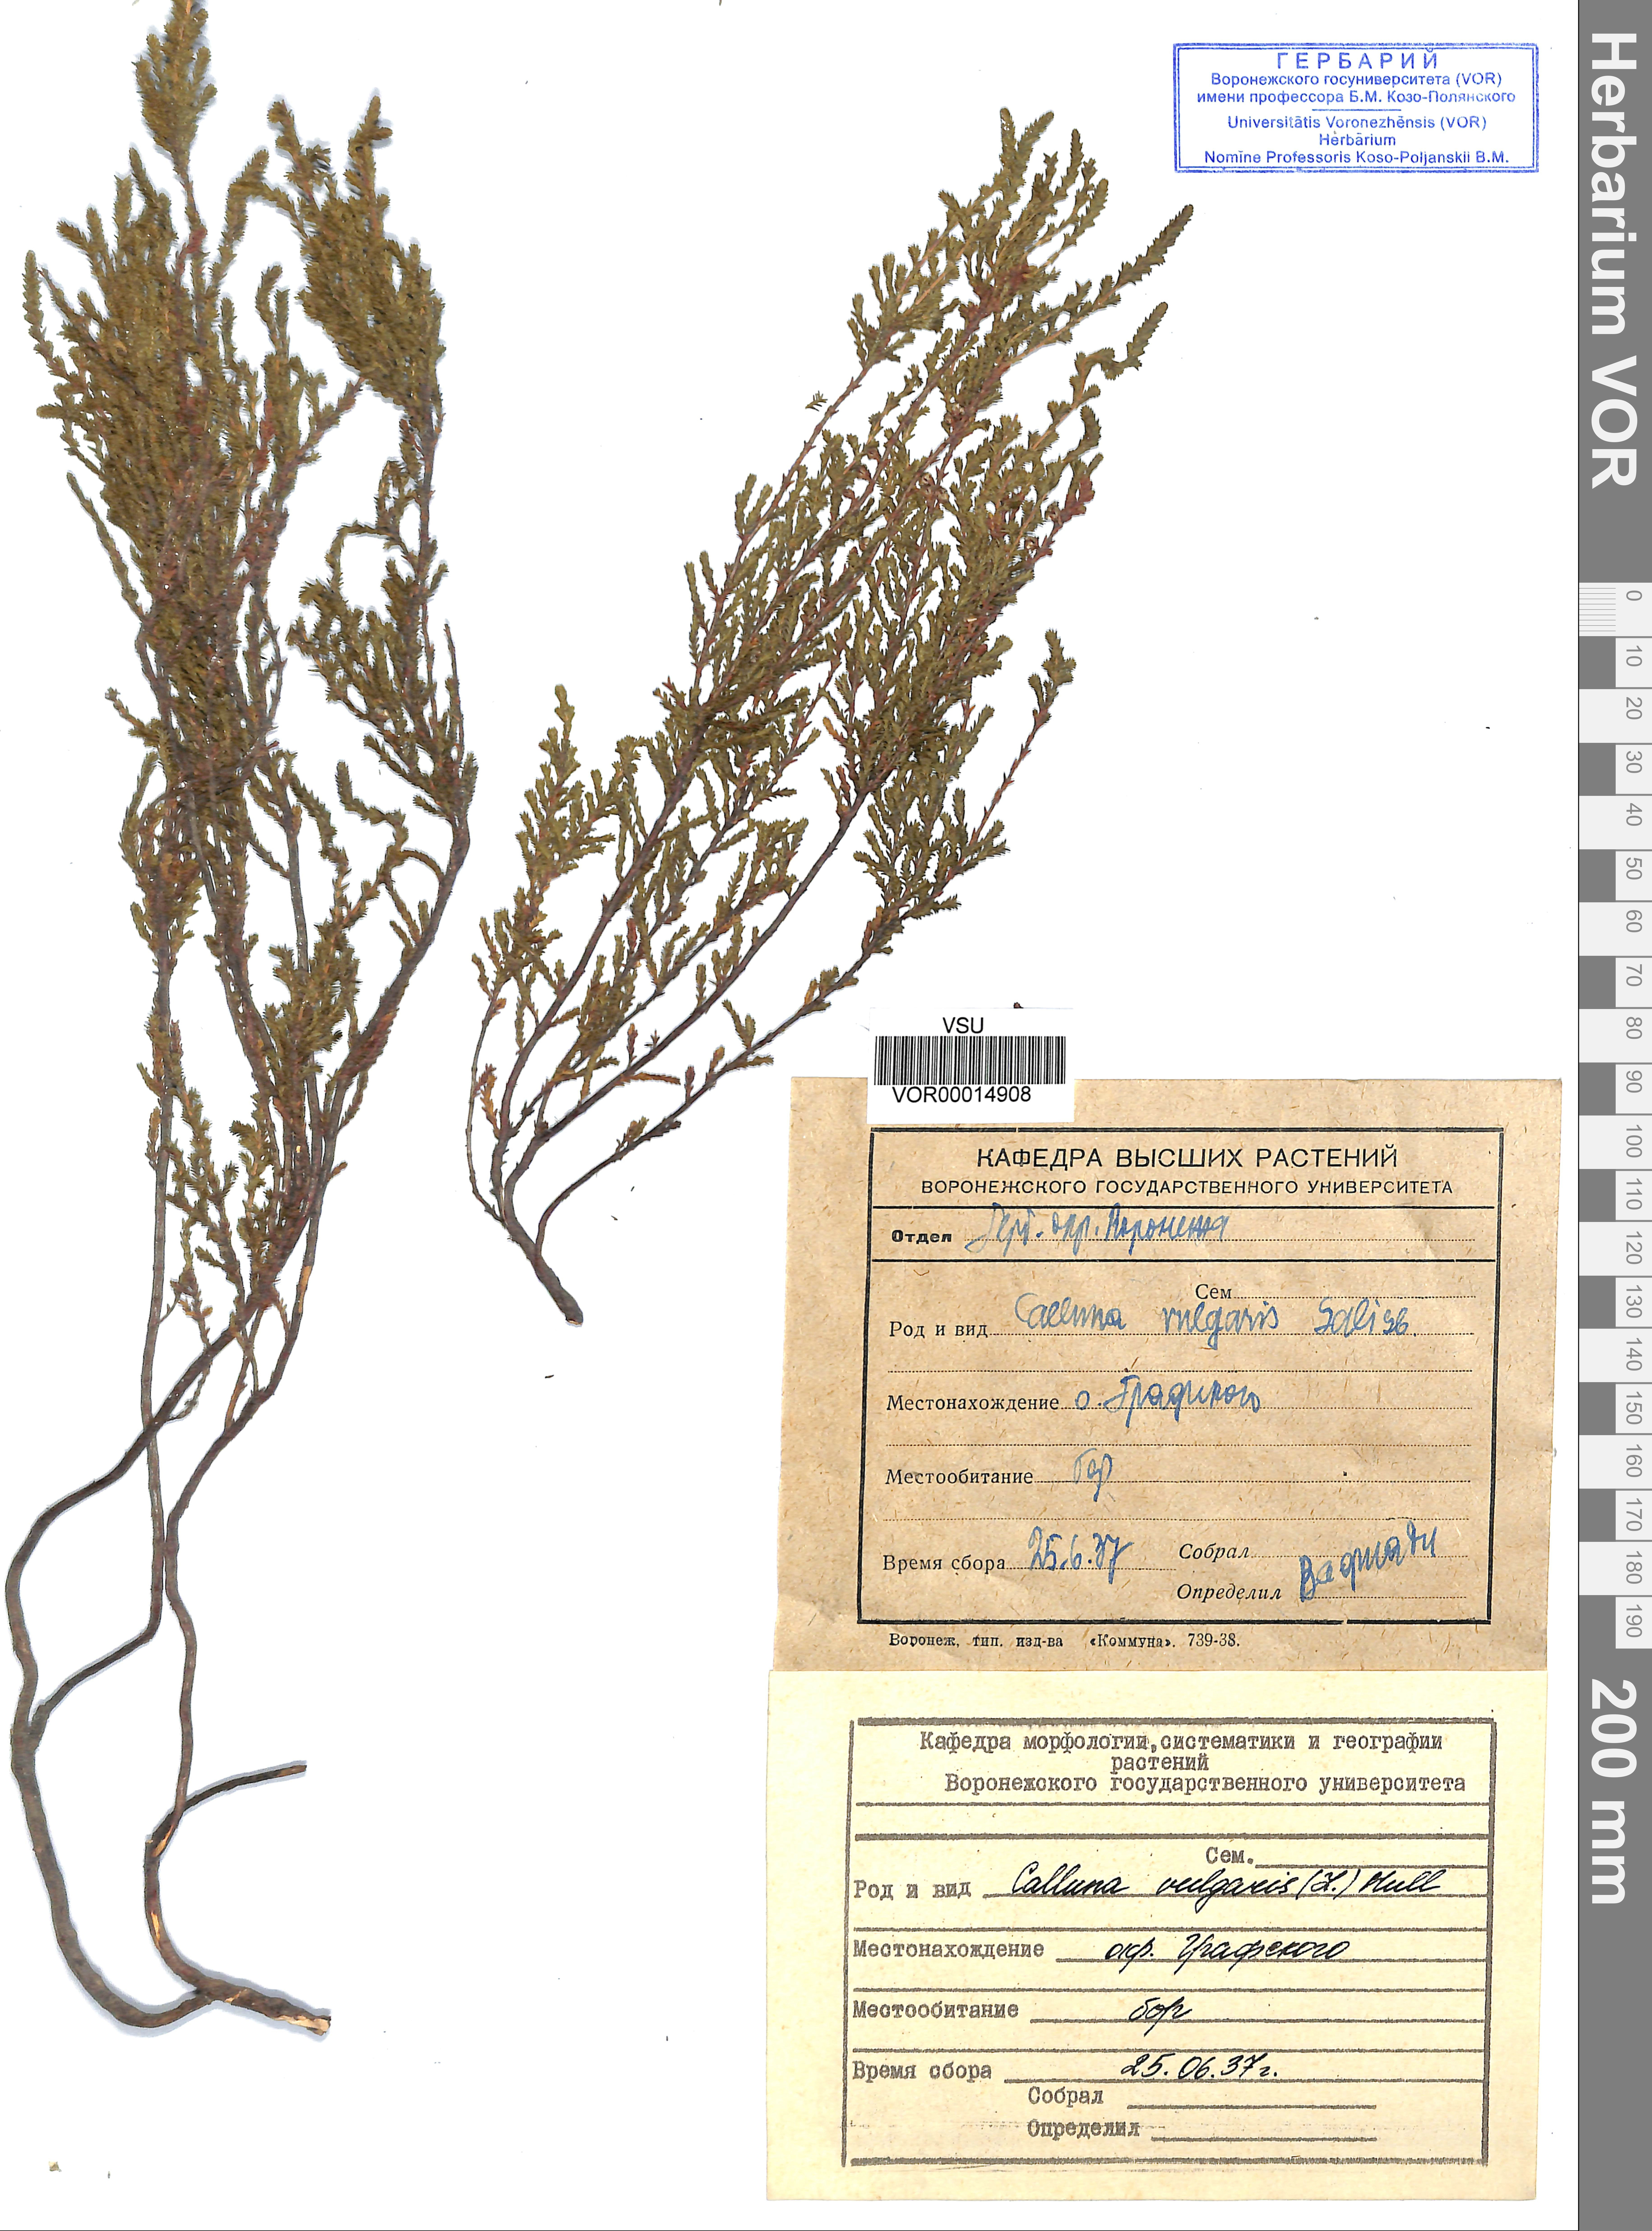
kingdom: Plantae
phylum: Tracheophyta
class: Magnoliopsida
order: Ericales
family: Ericaceae
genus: Calluna
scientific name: Calluna vulgaris
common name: Heather
